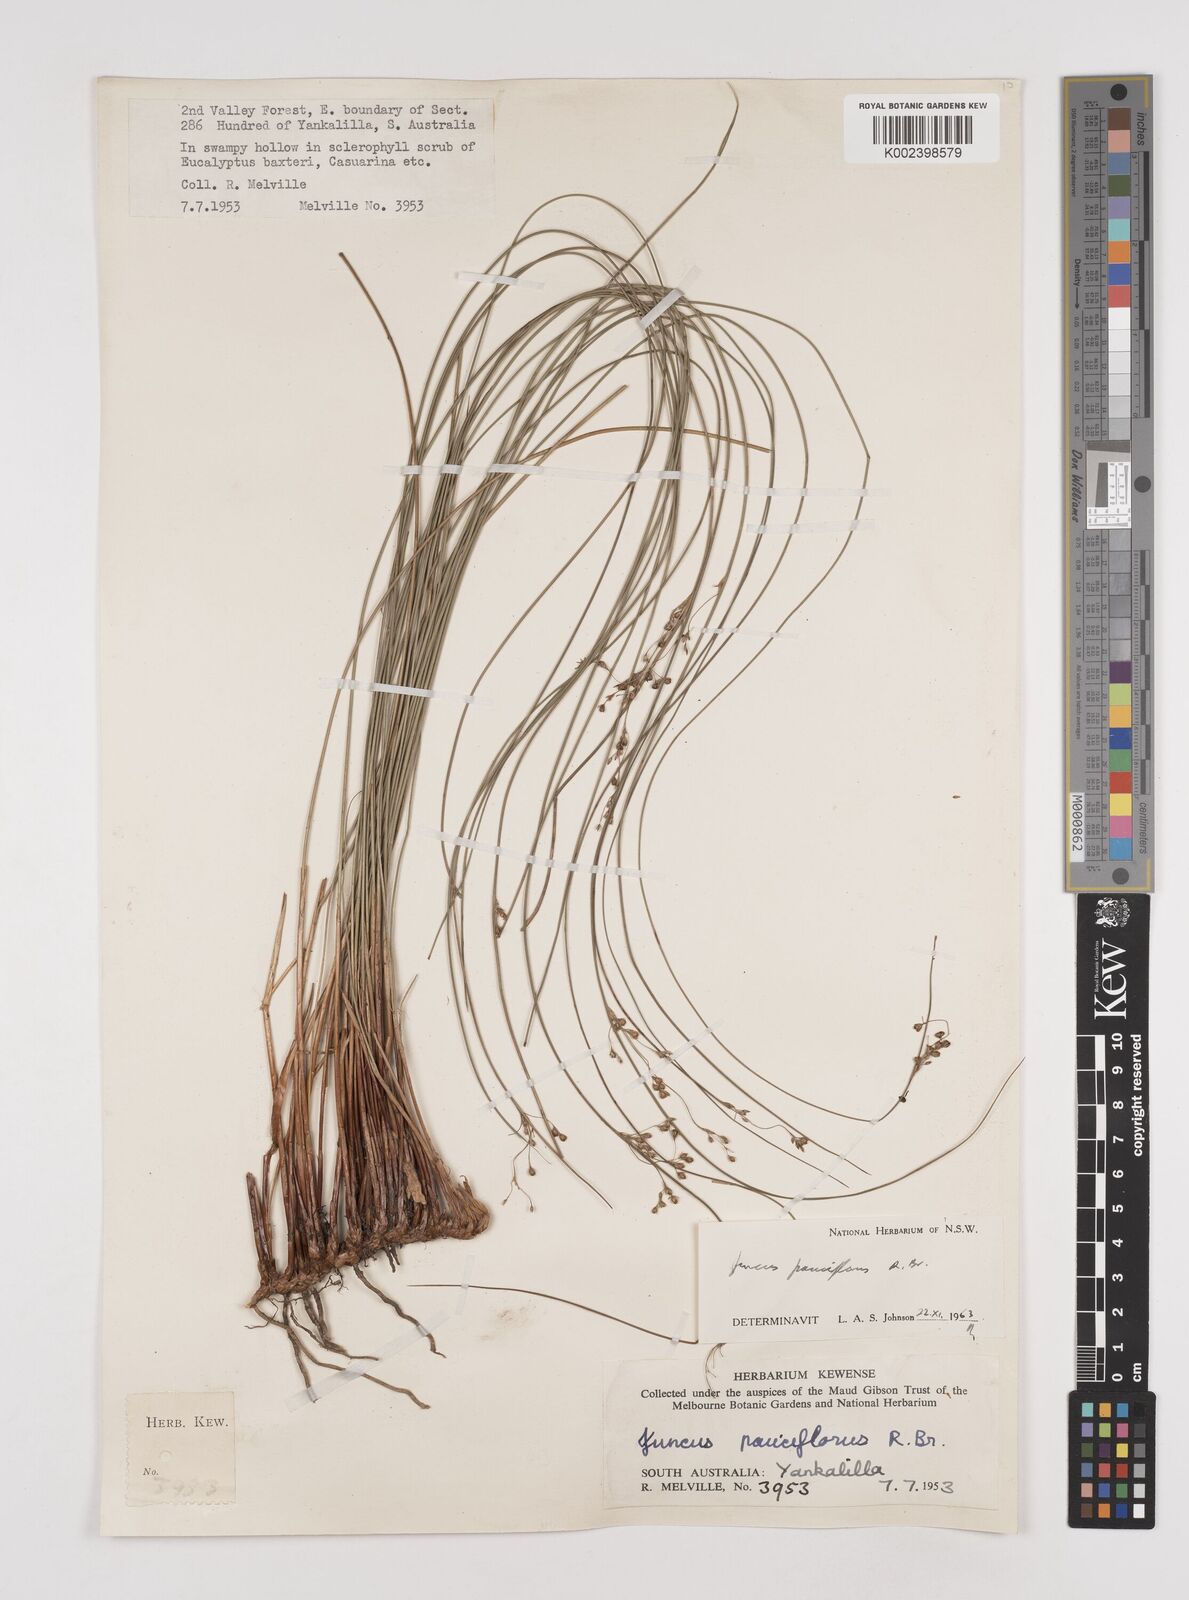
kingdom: Plantae
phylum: Tracheophyta
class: Liliopsida
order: Poales
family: Juncaceae
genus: Juncus
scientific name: Juncus pauciflorus
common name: Loose-flowered rush
